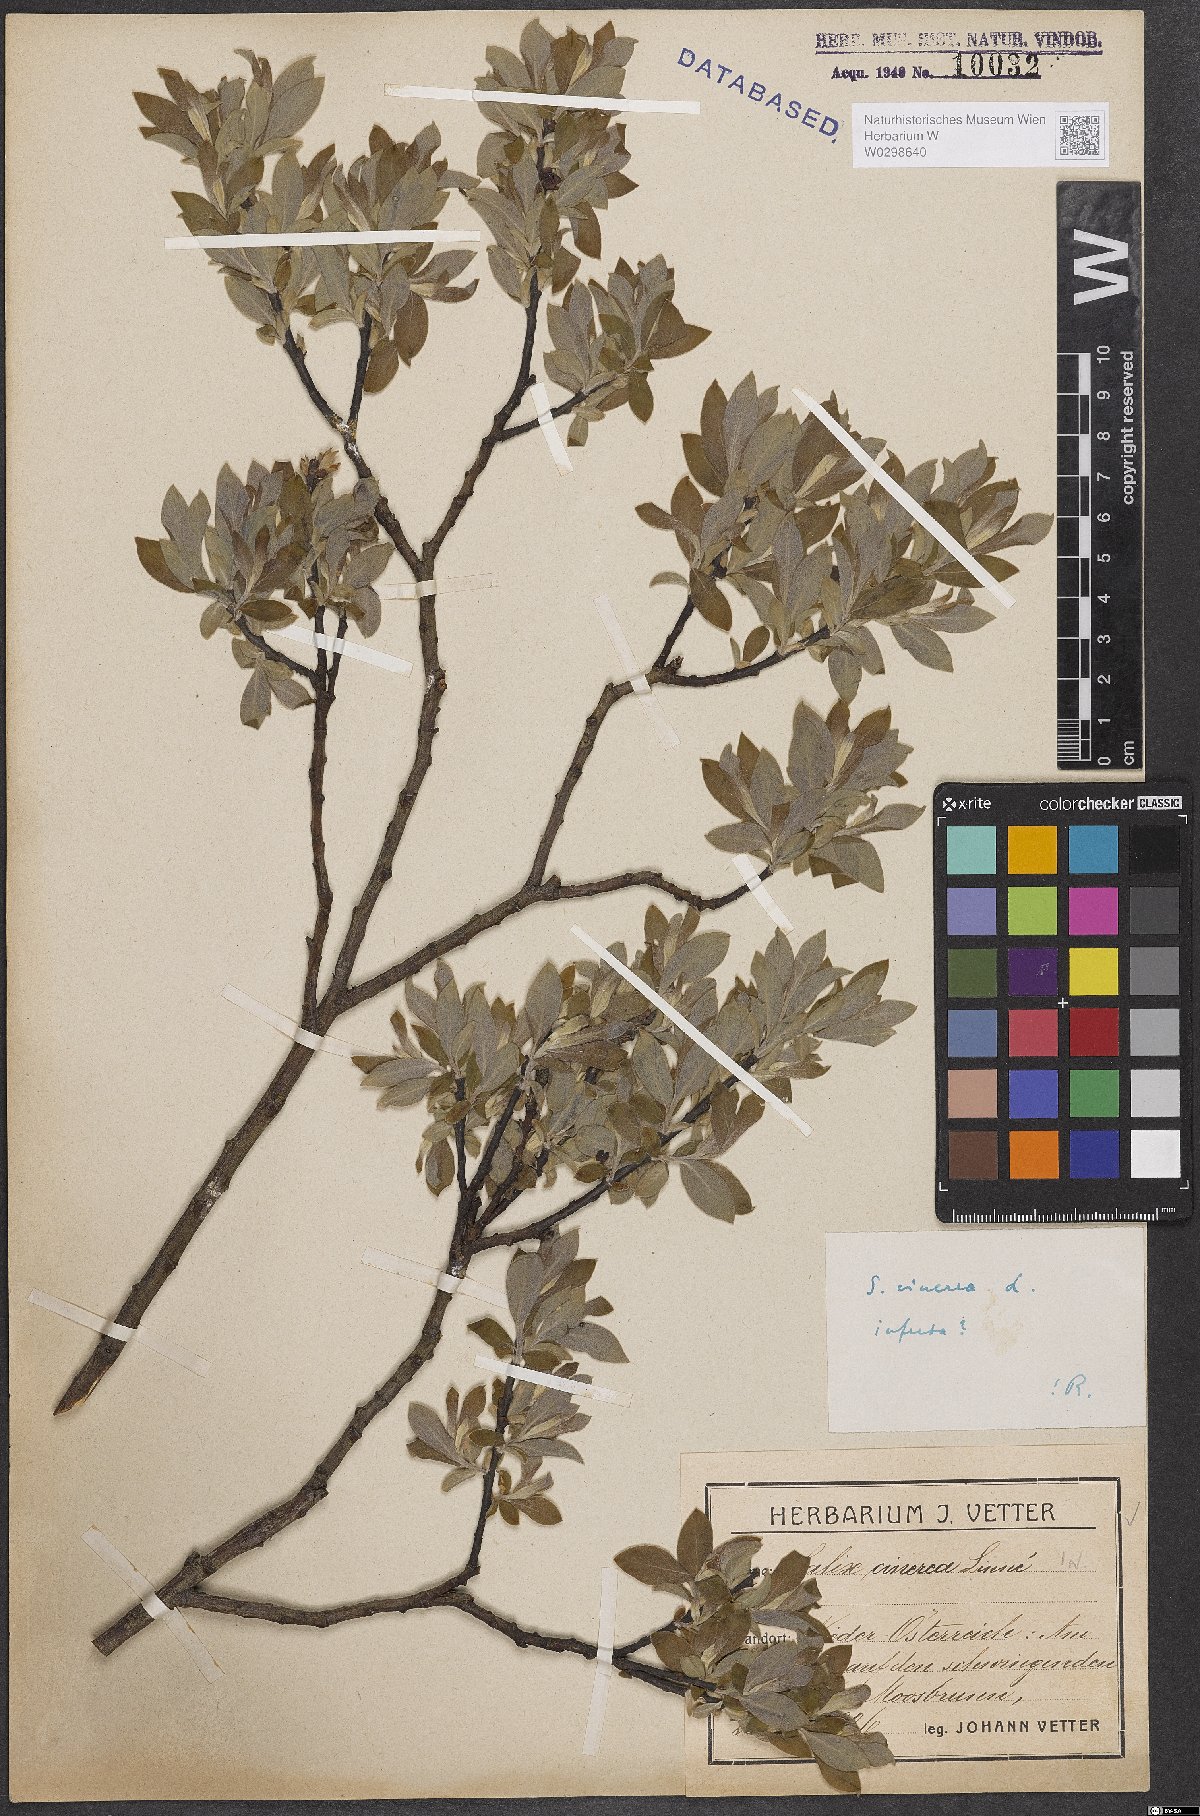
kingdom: Plantae
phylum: Tracheophyta
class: Magnoliopsida
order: Malpighiales
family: Salicaceae
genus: Salix
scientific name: Salix cinerea
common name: Common sallow
